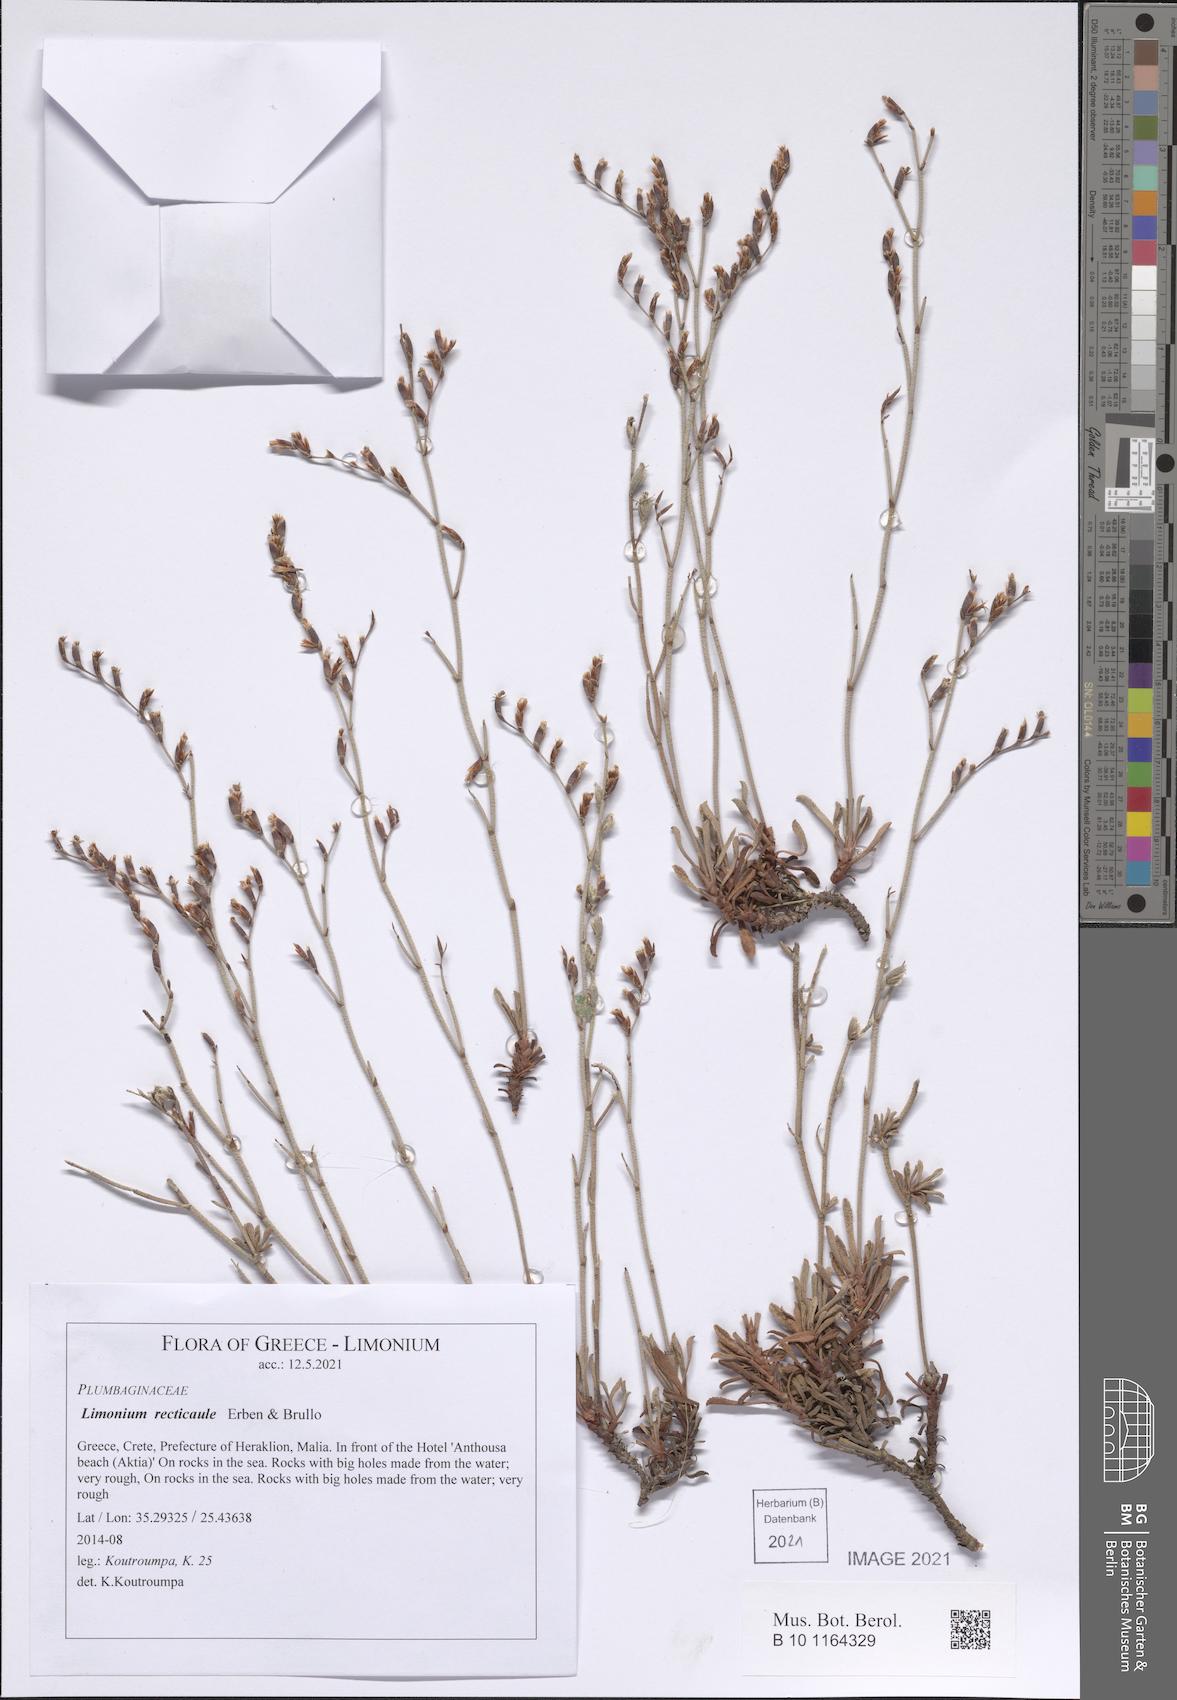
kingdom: Plantae
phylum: Tracheophyta
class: Magnoliopsida
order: Caryophyllales
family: Plumbaginaceae
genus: Limonium
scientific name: Limonium recticaule
